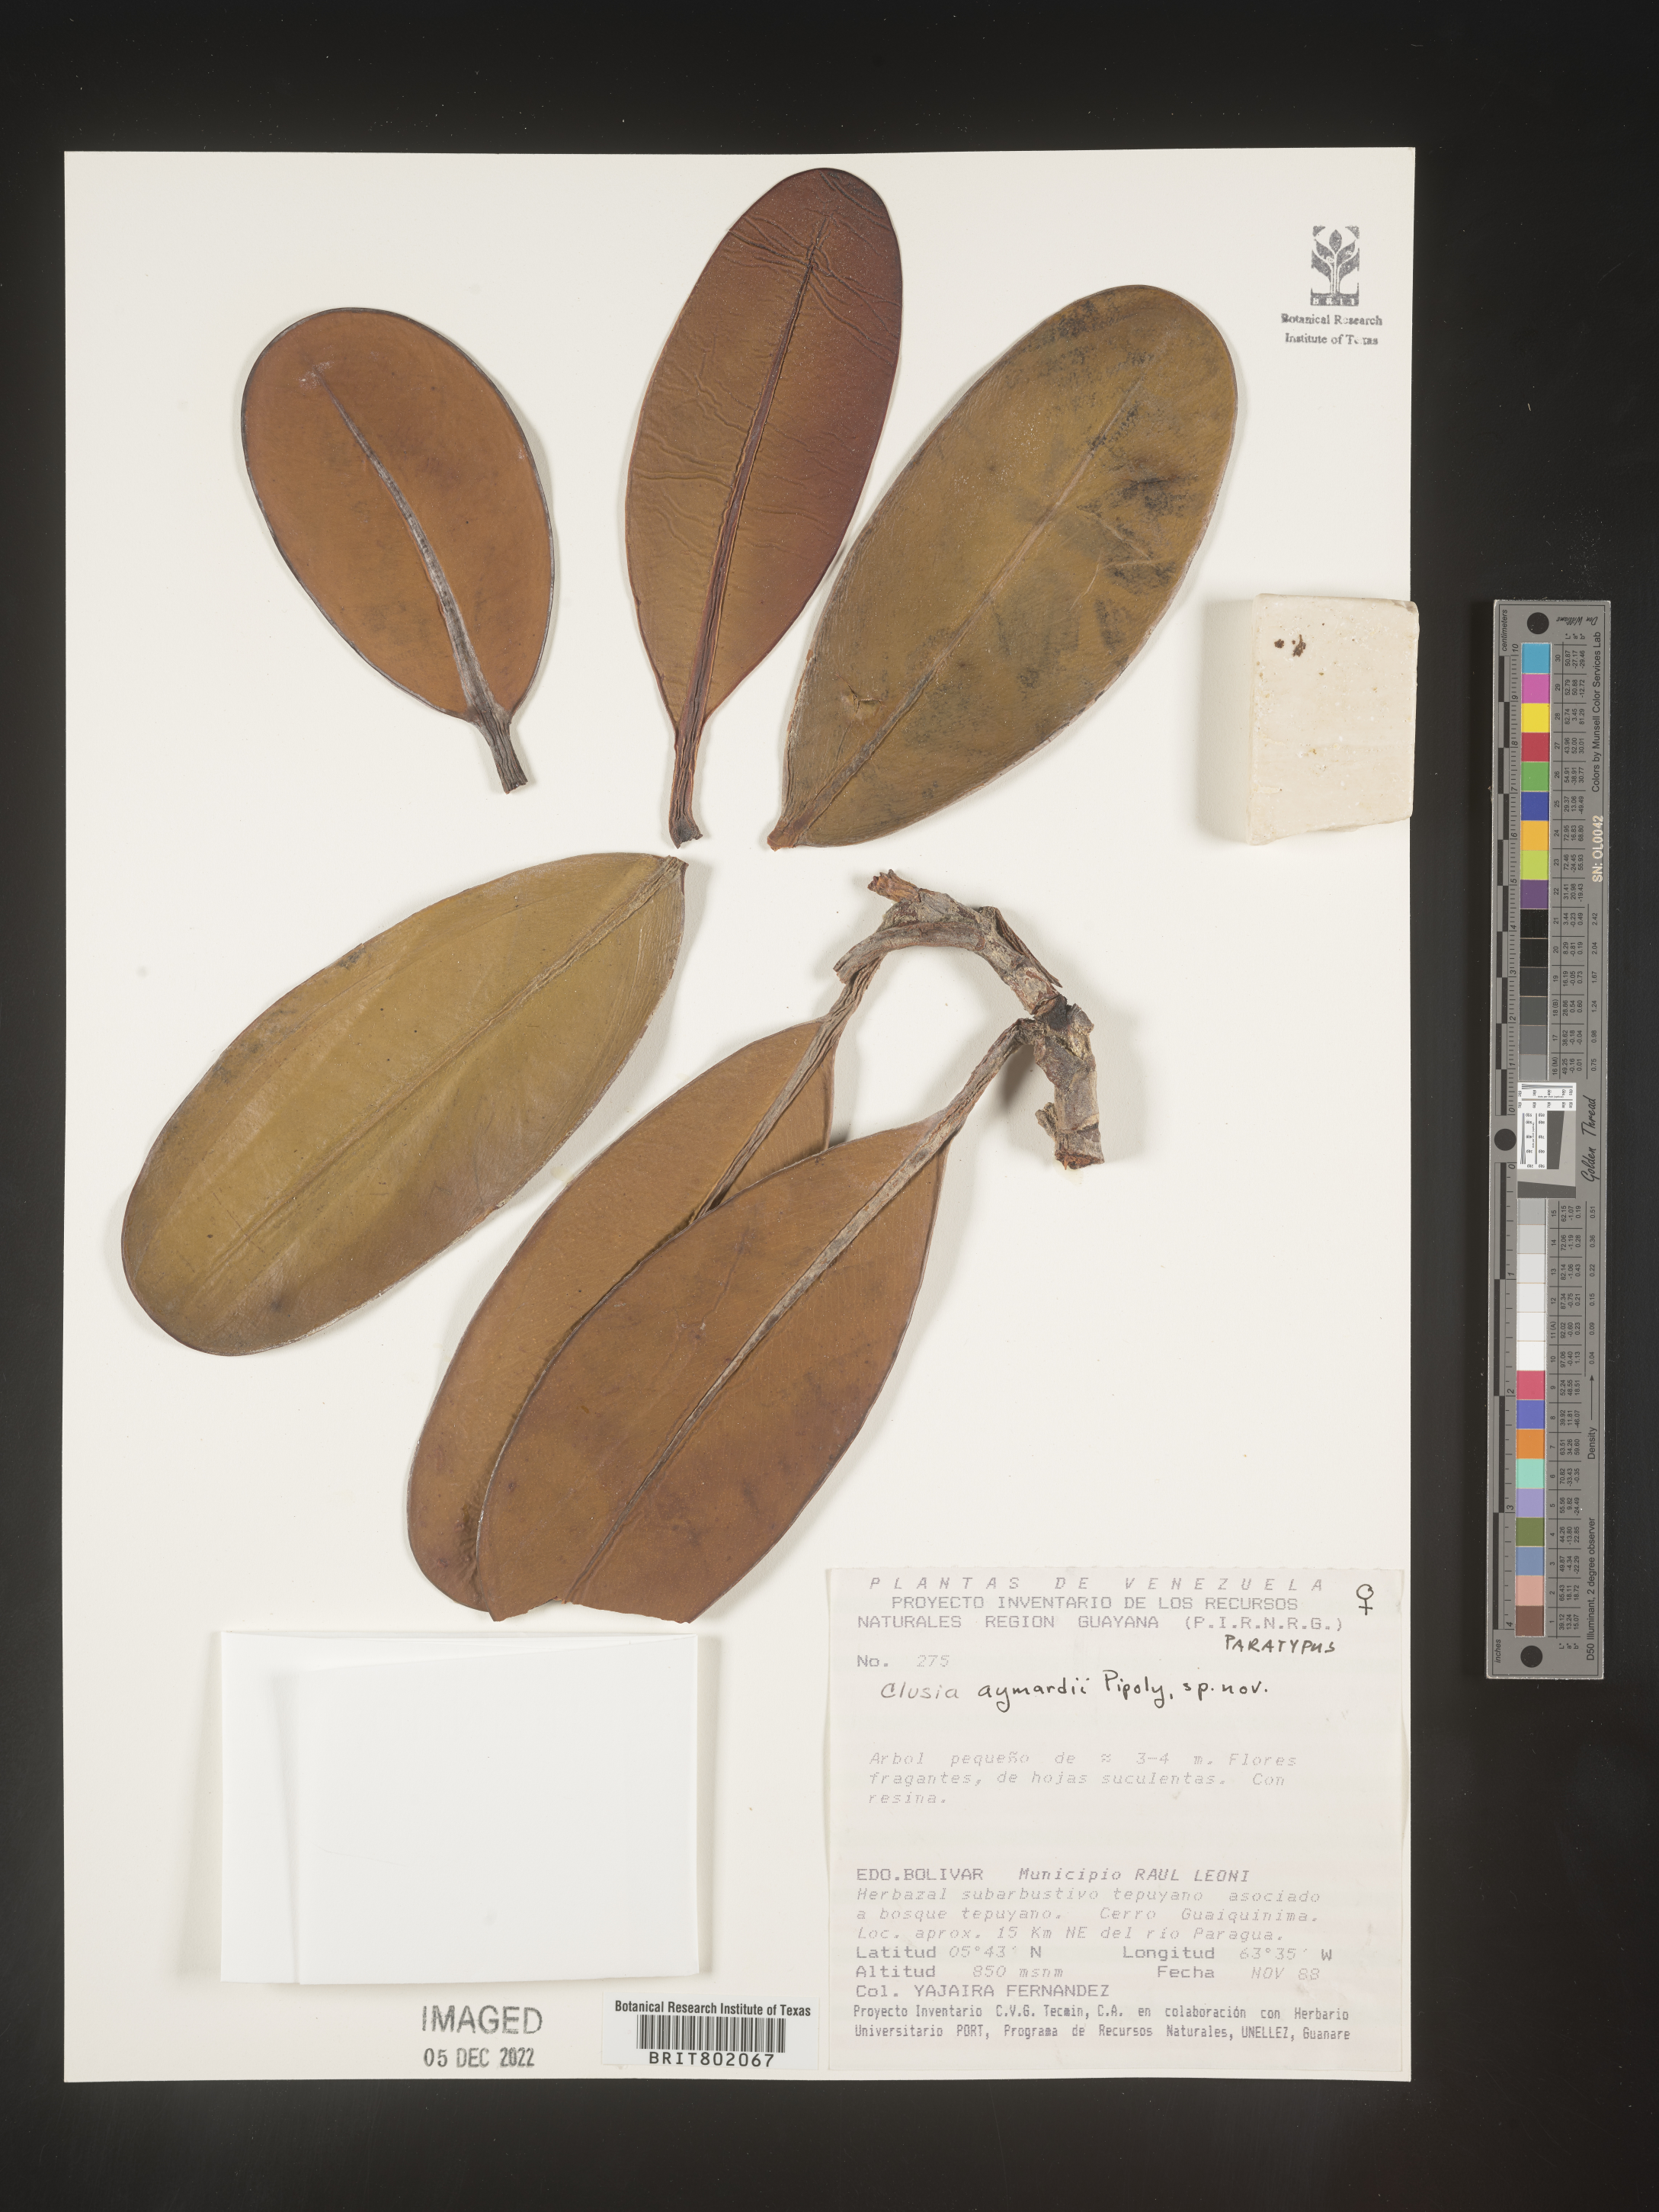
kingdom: Plantae
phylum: Tracheophyta
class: Magnoliopsida
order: Malpighiales
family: Clusiaceae
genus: Clusia
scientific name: Clusia
